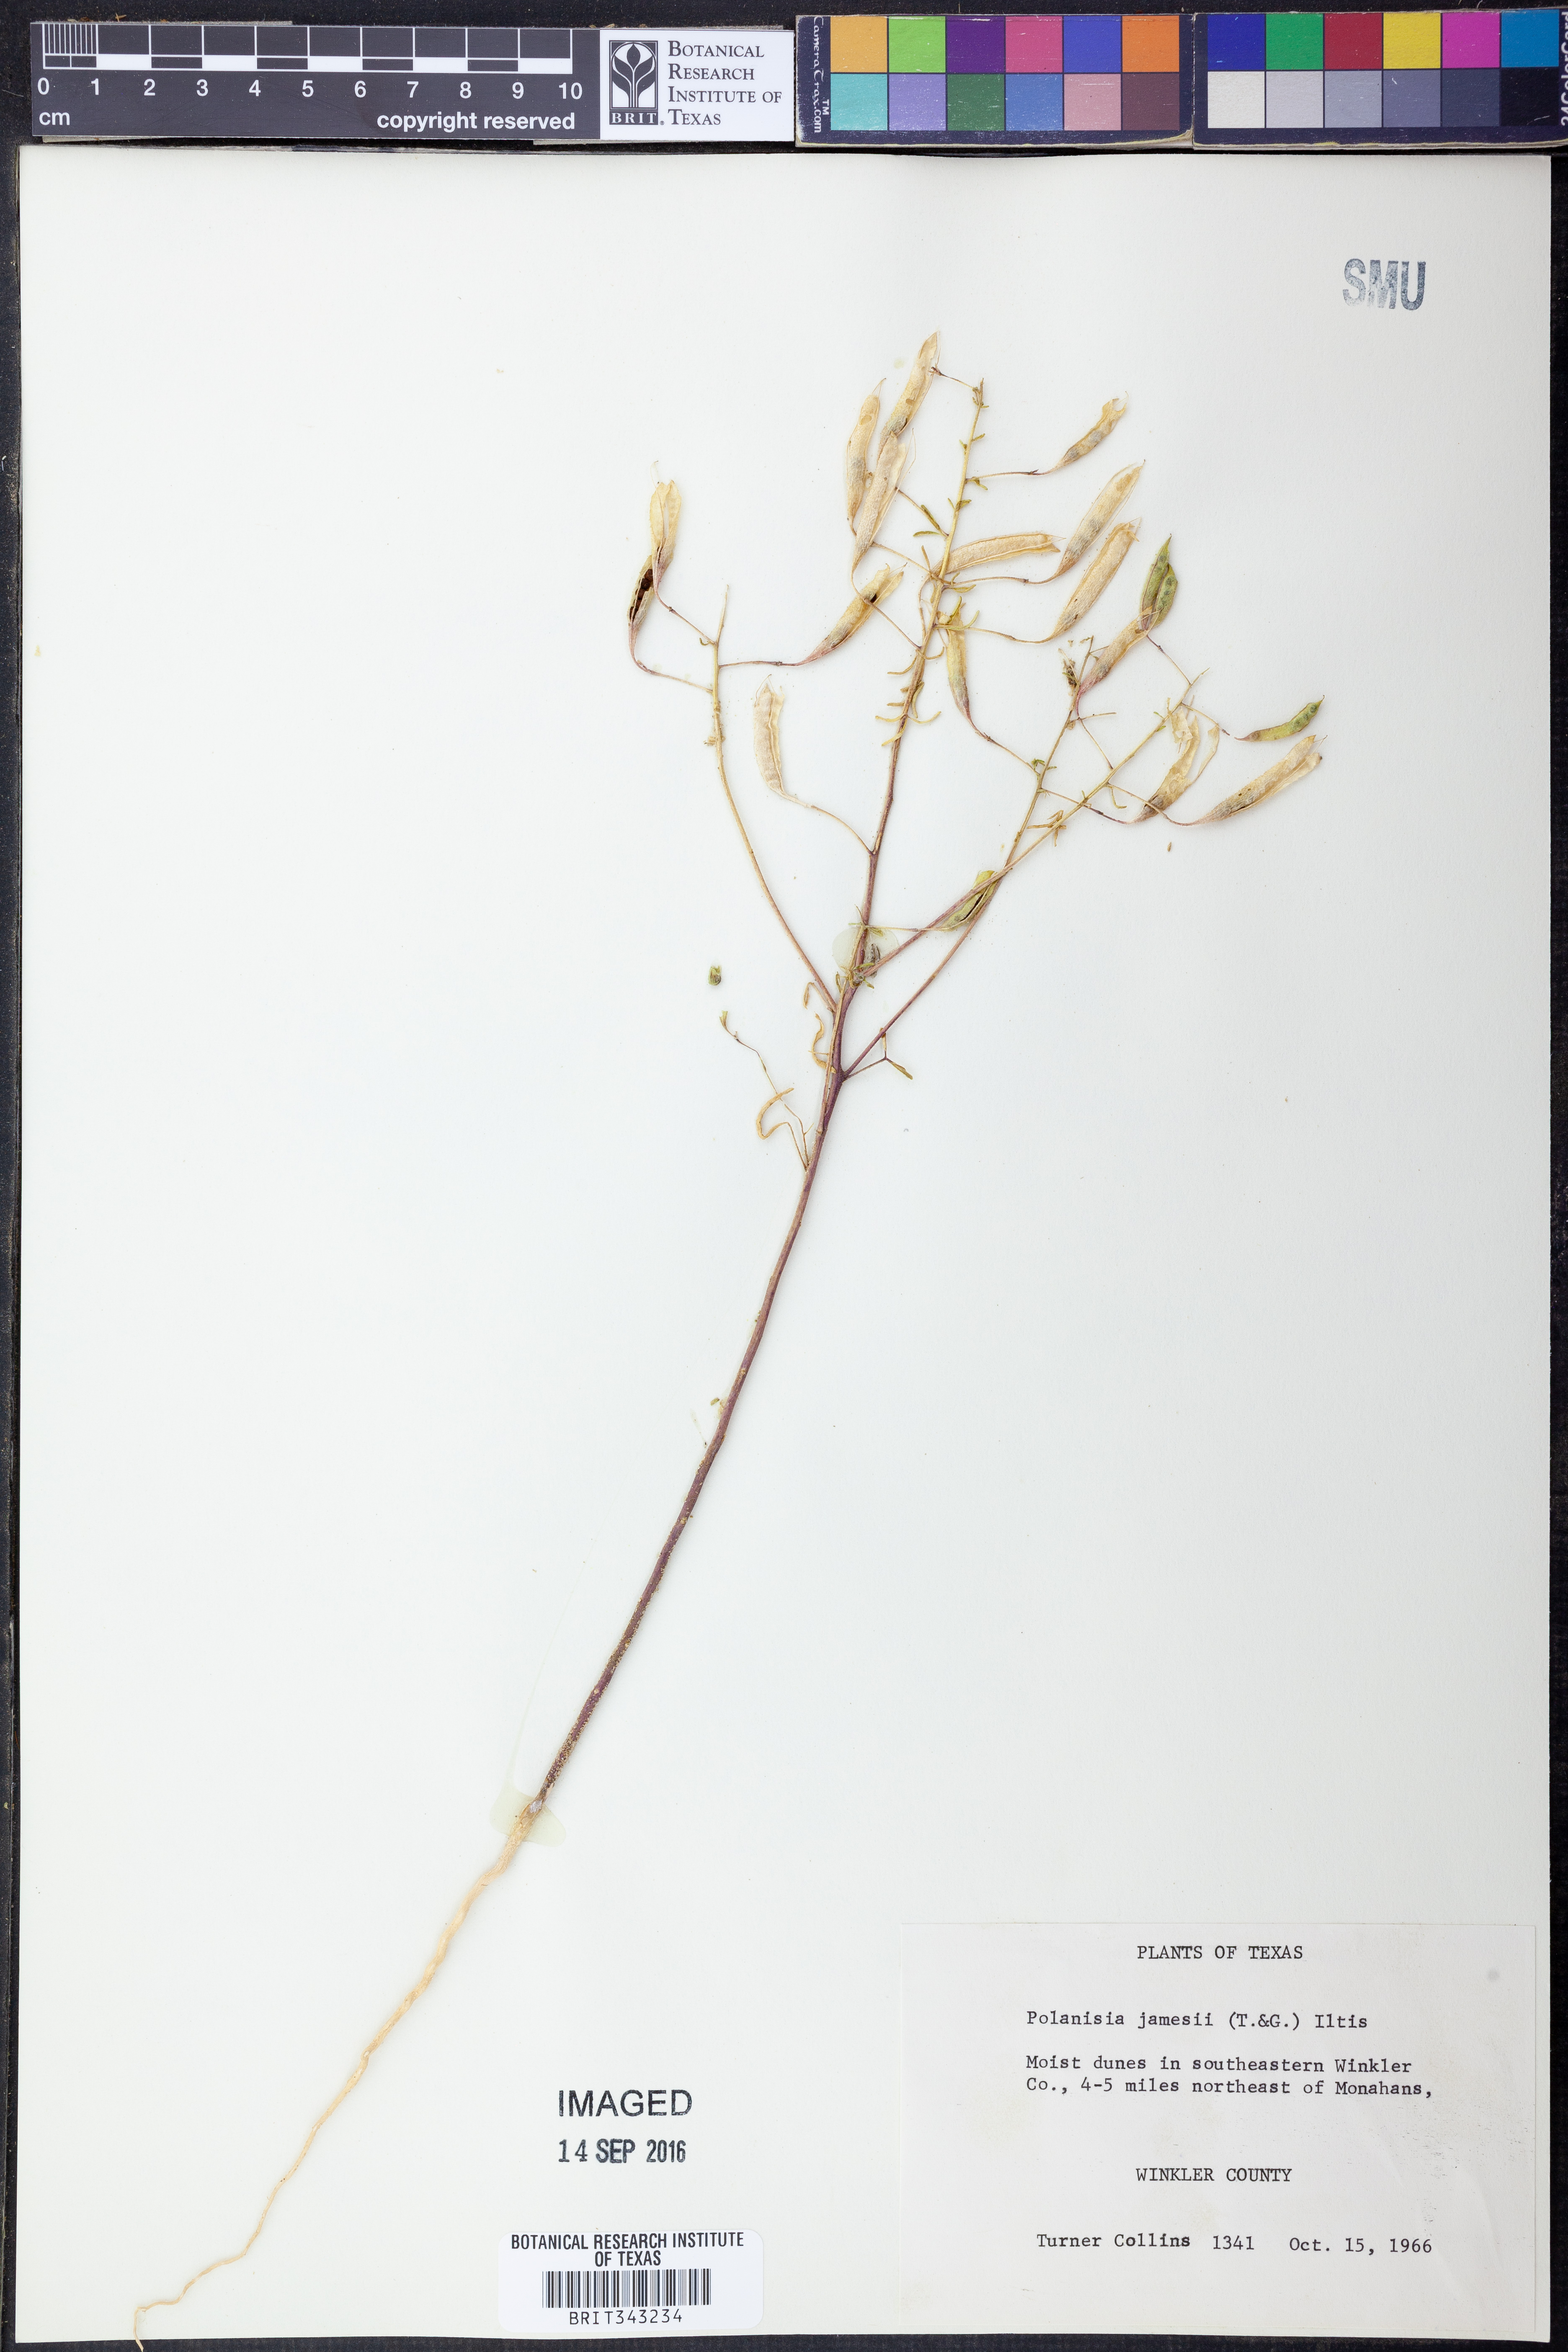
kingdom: Plantae
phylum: Tracheophyta
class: Magnoliopsida
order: Brassicales
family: Cleomaceae
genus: Polanisia
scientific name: Polanisia jamesii
